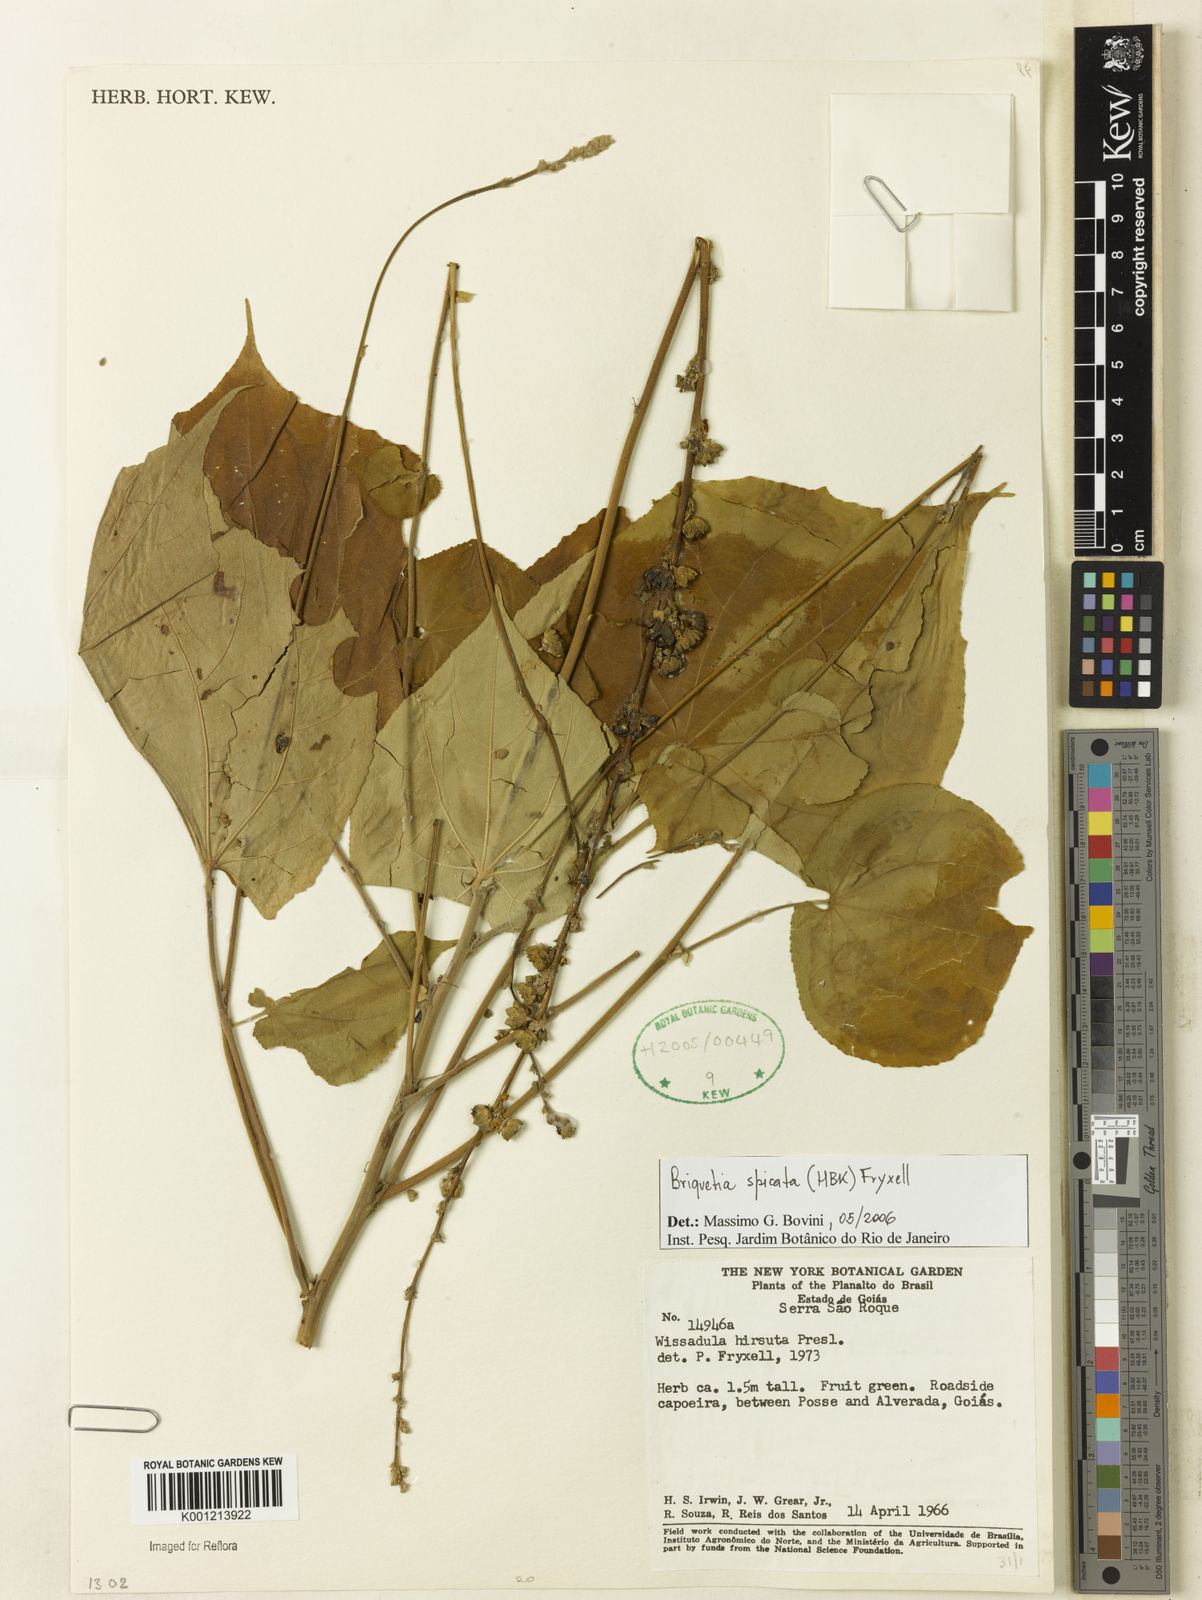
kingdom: Plantae
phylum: Tracheophyta
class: Magnoliopsida
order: Malvales
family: Malvaceae
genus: Allobriquetia
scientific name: Allobriquetia spicata
